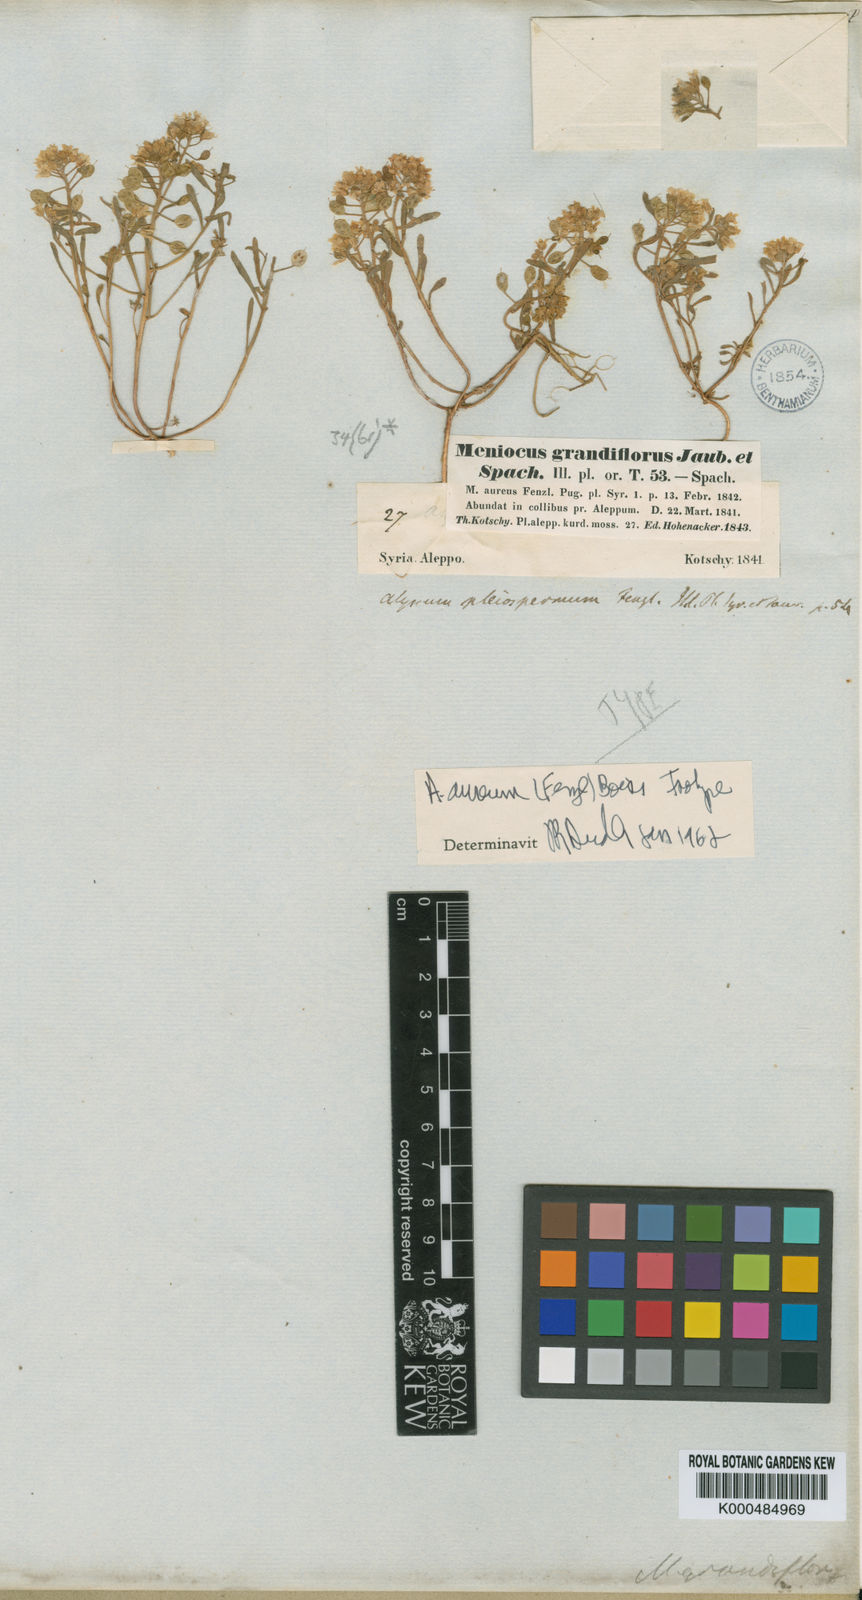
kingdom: Plantae
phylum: Tracheophyta
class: Magnoliopsida
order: Brassicales
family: Brassicaceae
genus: Meniocus
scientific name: Meniocus aureus
